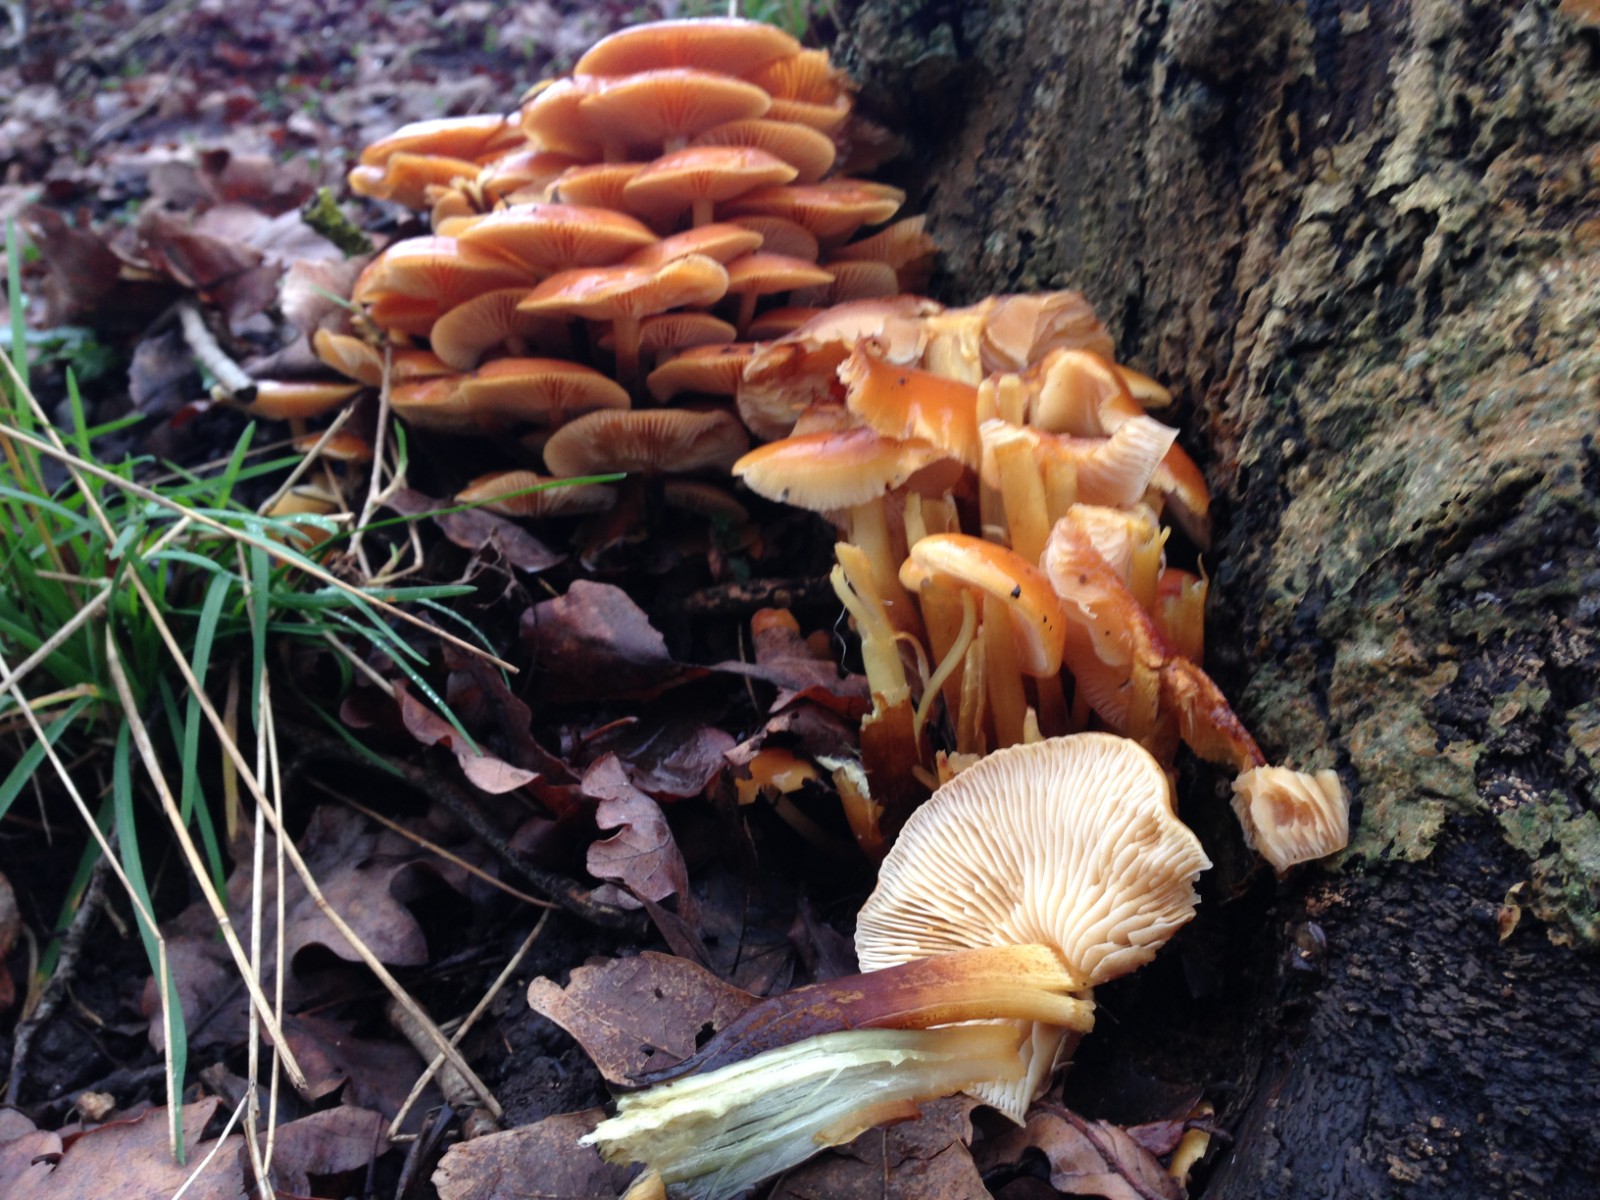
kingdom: Fungi
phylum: Basidiomycota
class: Agaricomycetes
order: Agaricales
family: Physalacriaceae
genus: Flammulina
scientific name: Flammulina velutipes
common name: gul fløjlsfod
